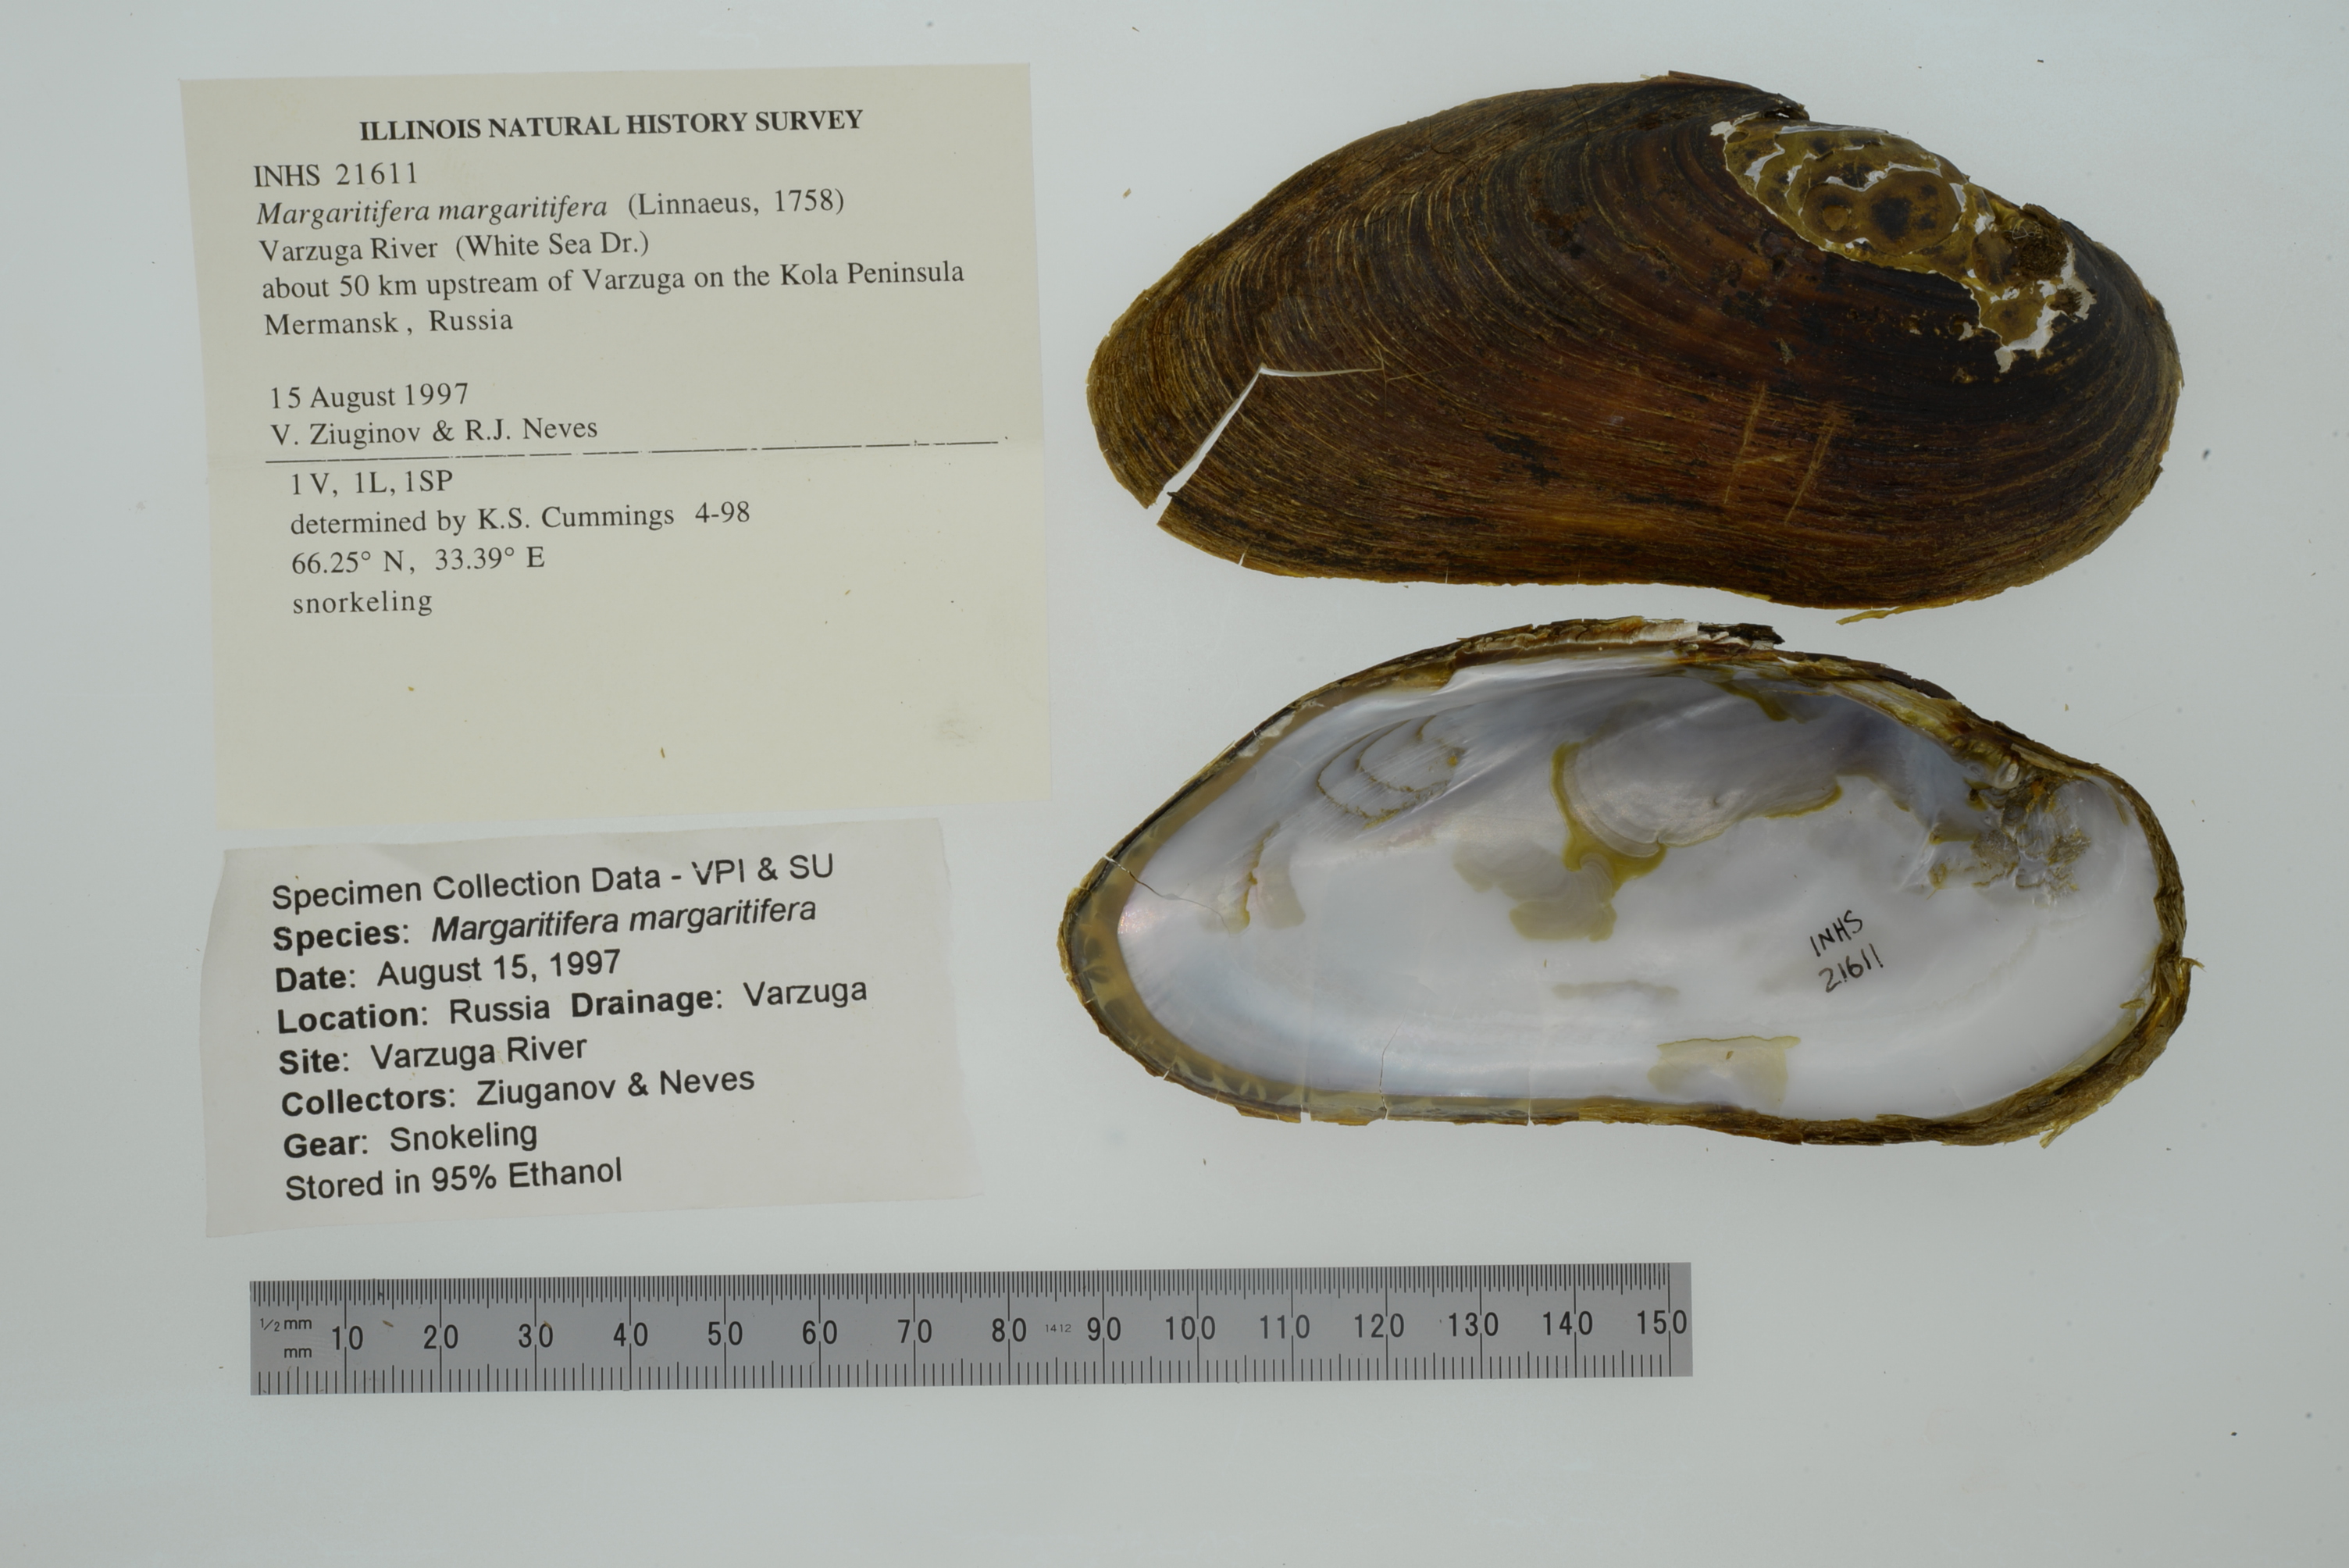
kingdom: Animalia
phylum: Mollusca
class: Bivalvia
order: Unionida
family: Margaritiferidae
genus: Margaritifera
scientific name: Margaritifera margaritifera
